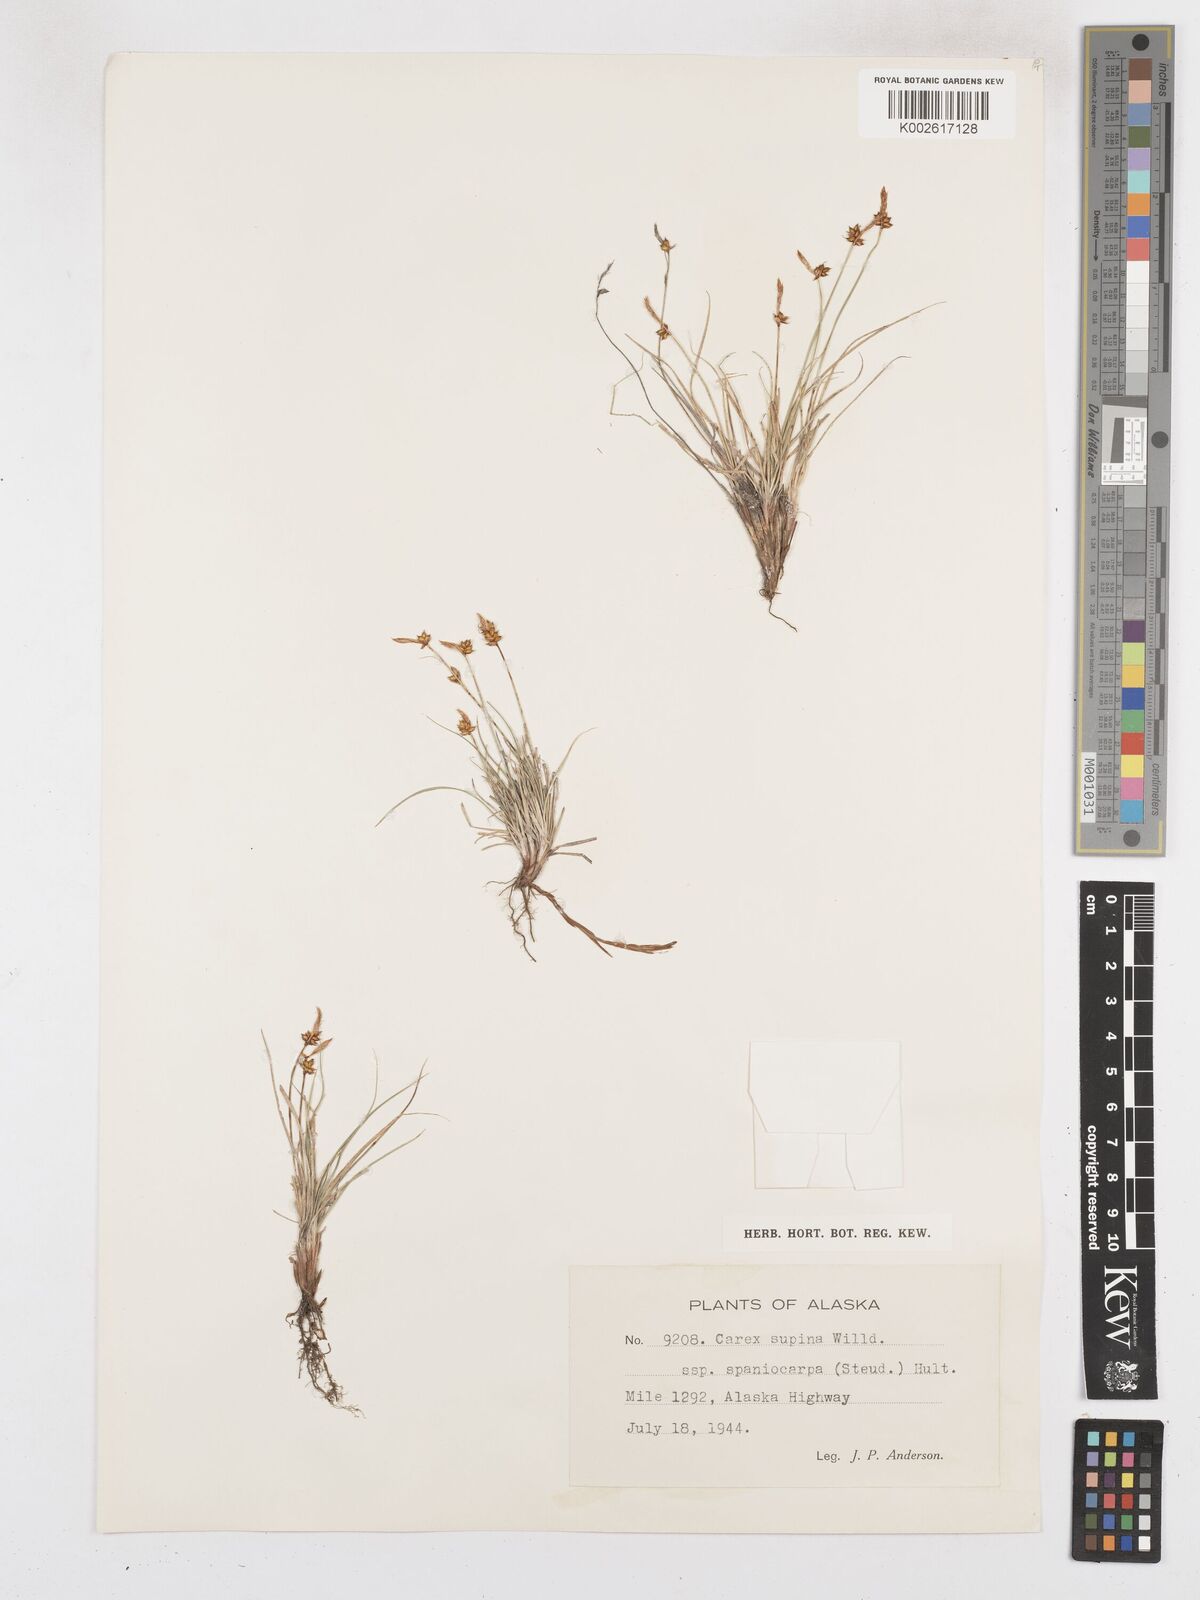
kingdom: Plantae
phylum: Tracheophyta
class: Liliopsida
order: Poales
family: Cyperaceae
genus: Carex
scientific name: Carex supina
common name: Lying-back sedge
